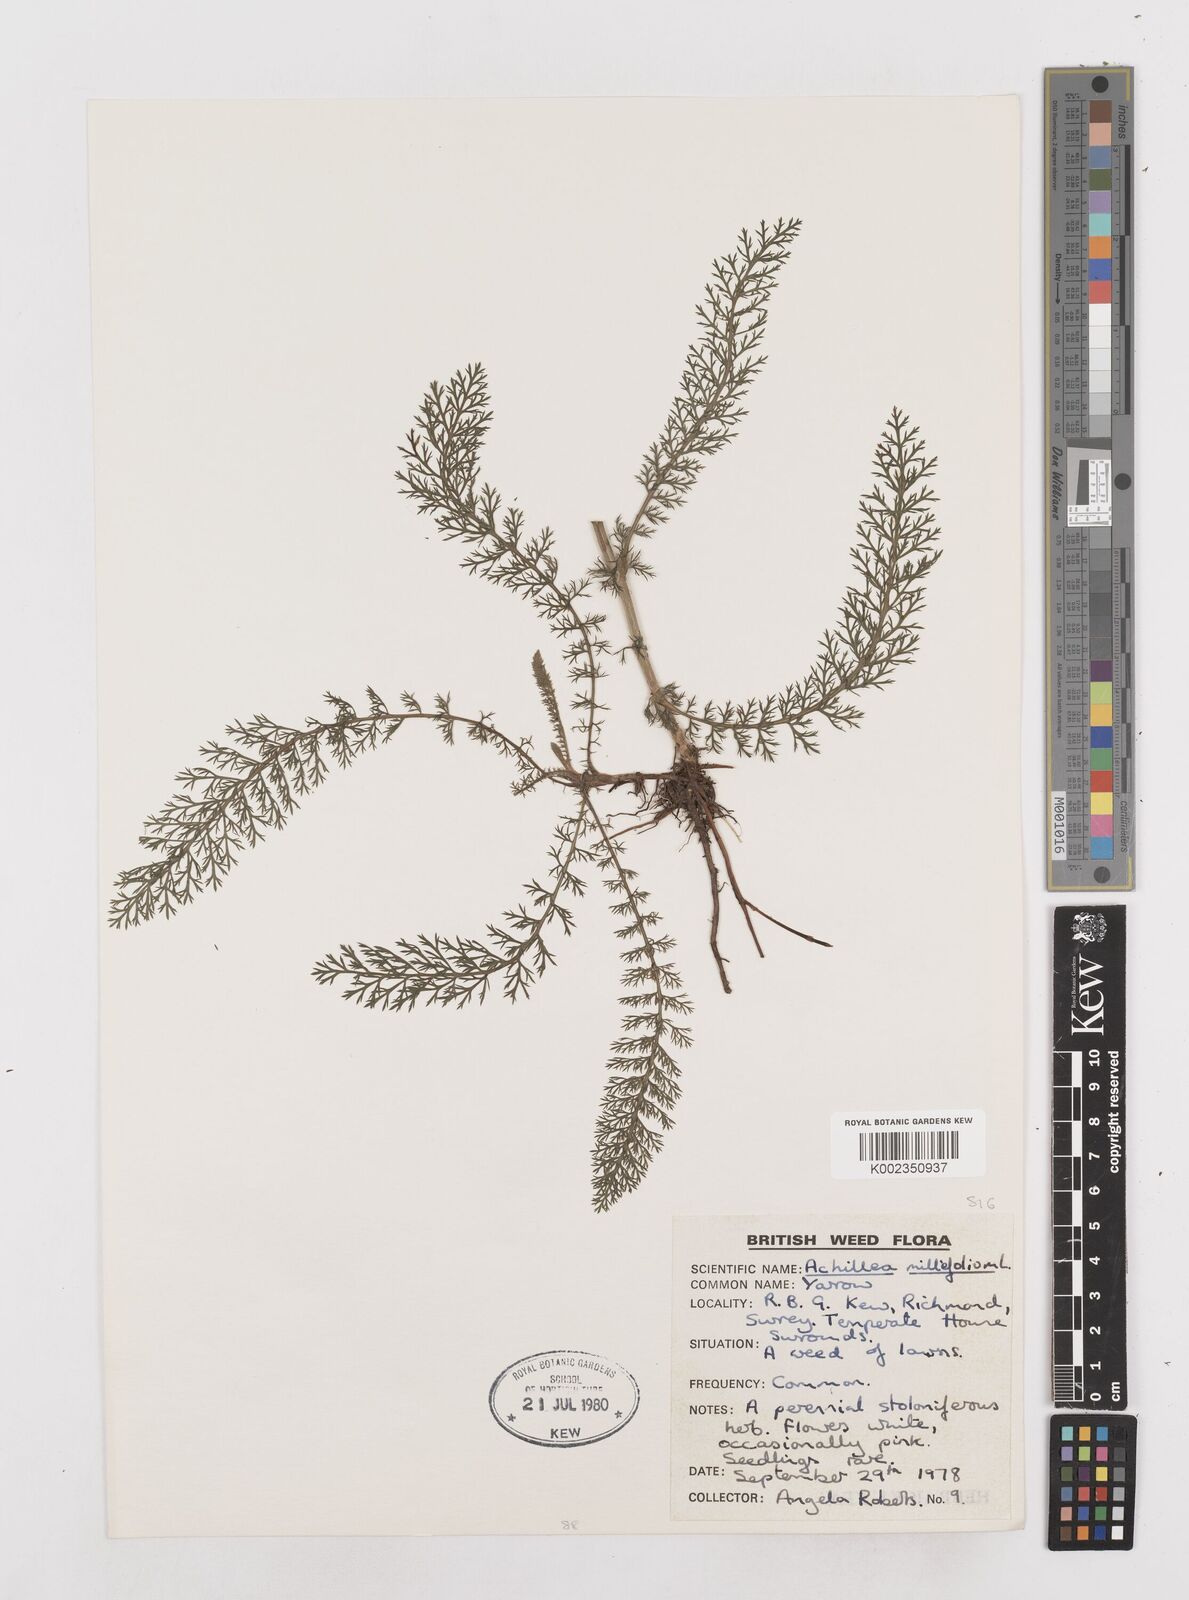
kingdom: Plantae
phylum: Tracheophyta
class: Magnoliopsida
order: Asterales
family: Asteraceae
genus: Achillea
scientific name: Achillea millefolium
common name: Yarrow
